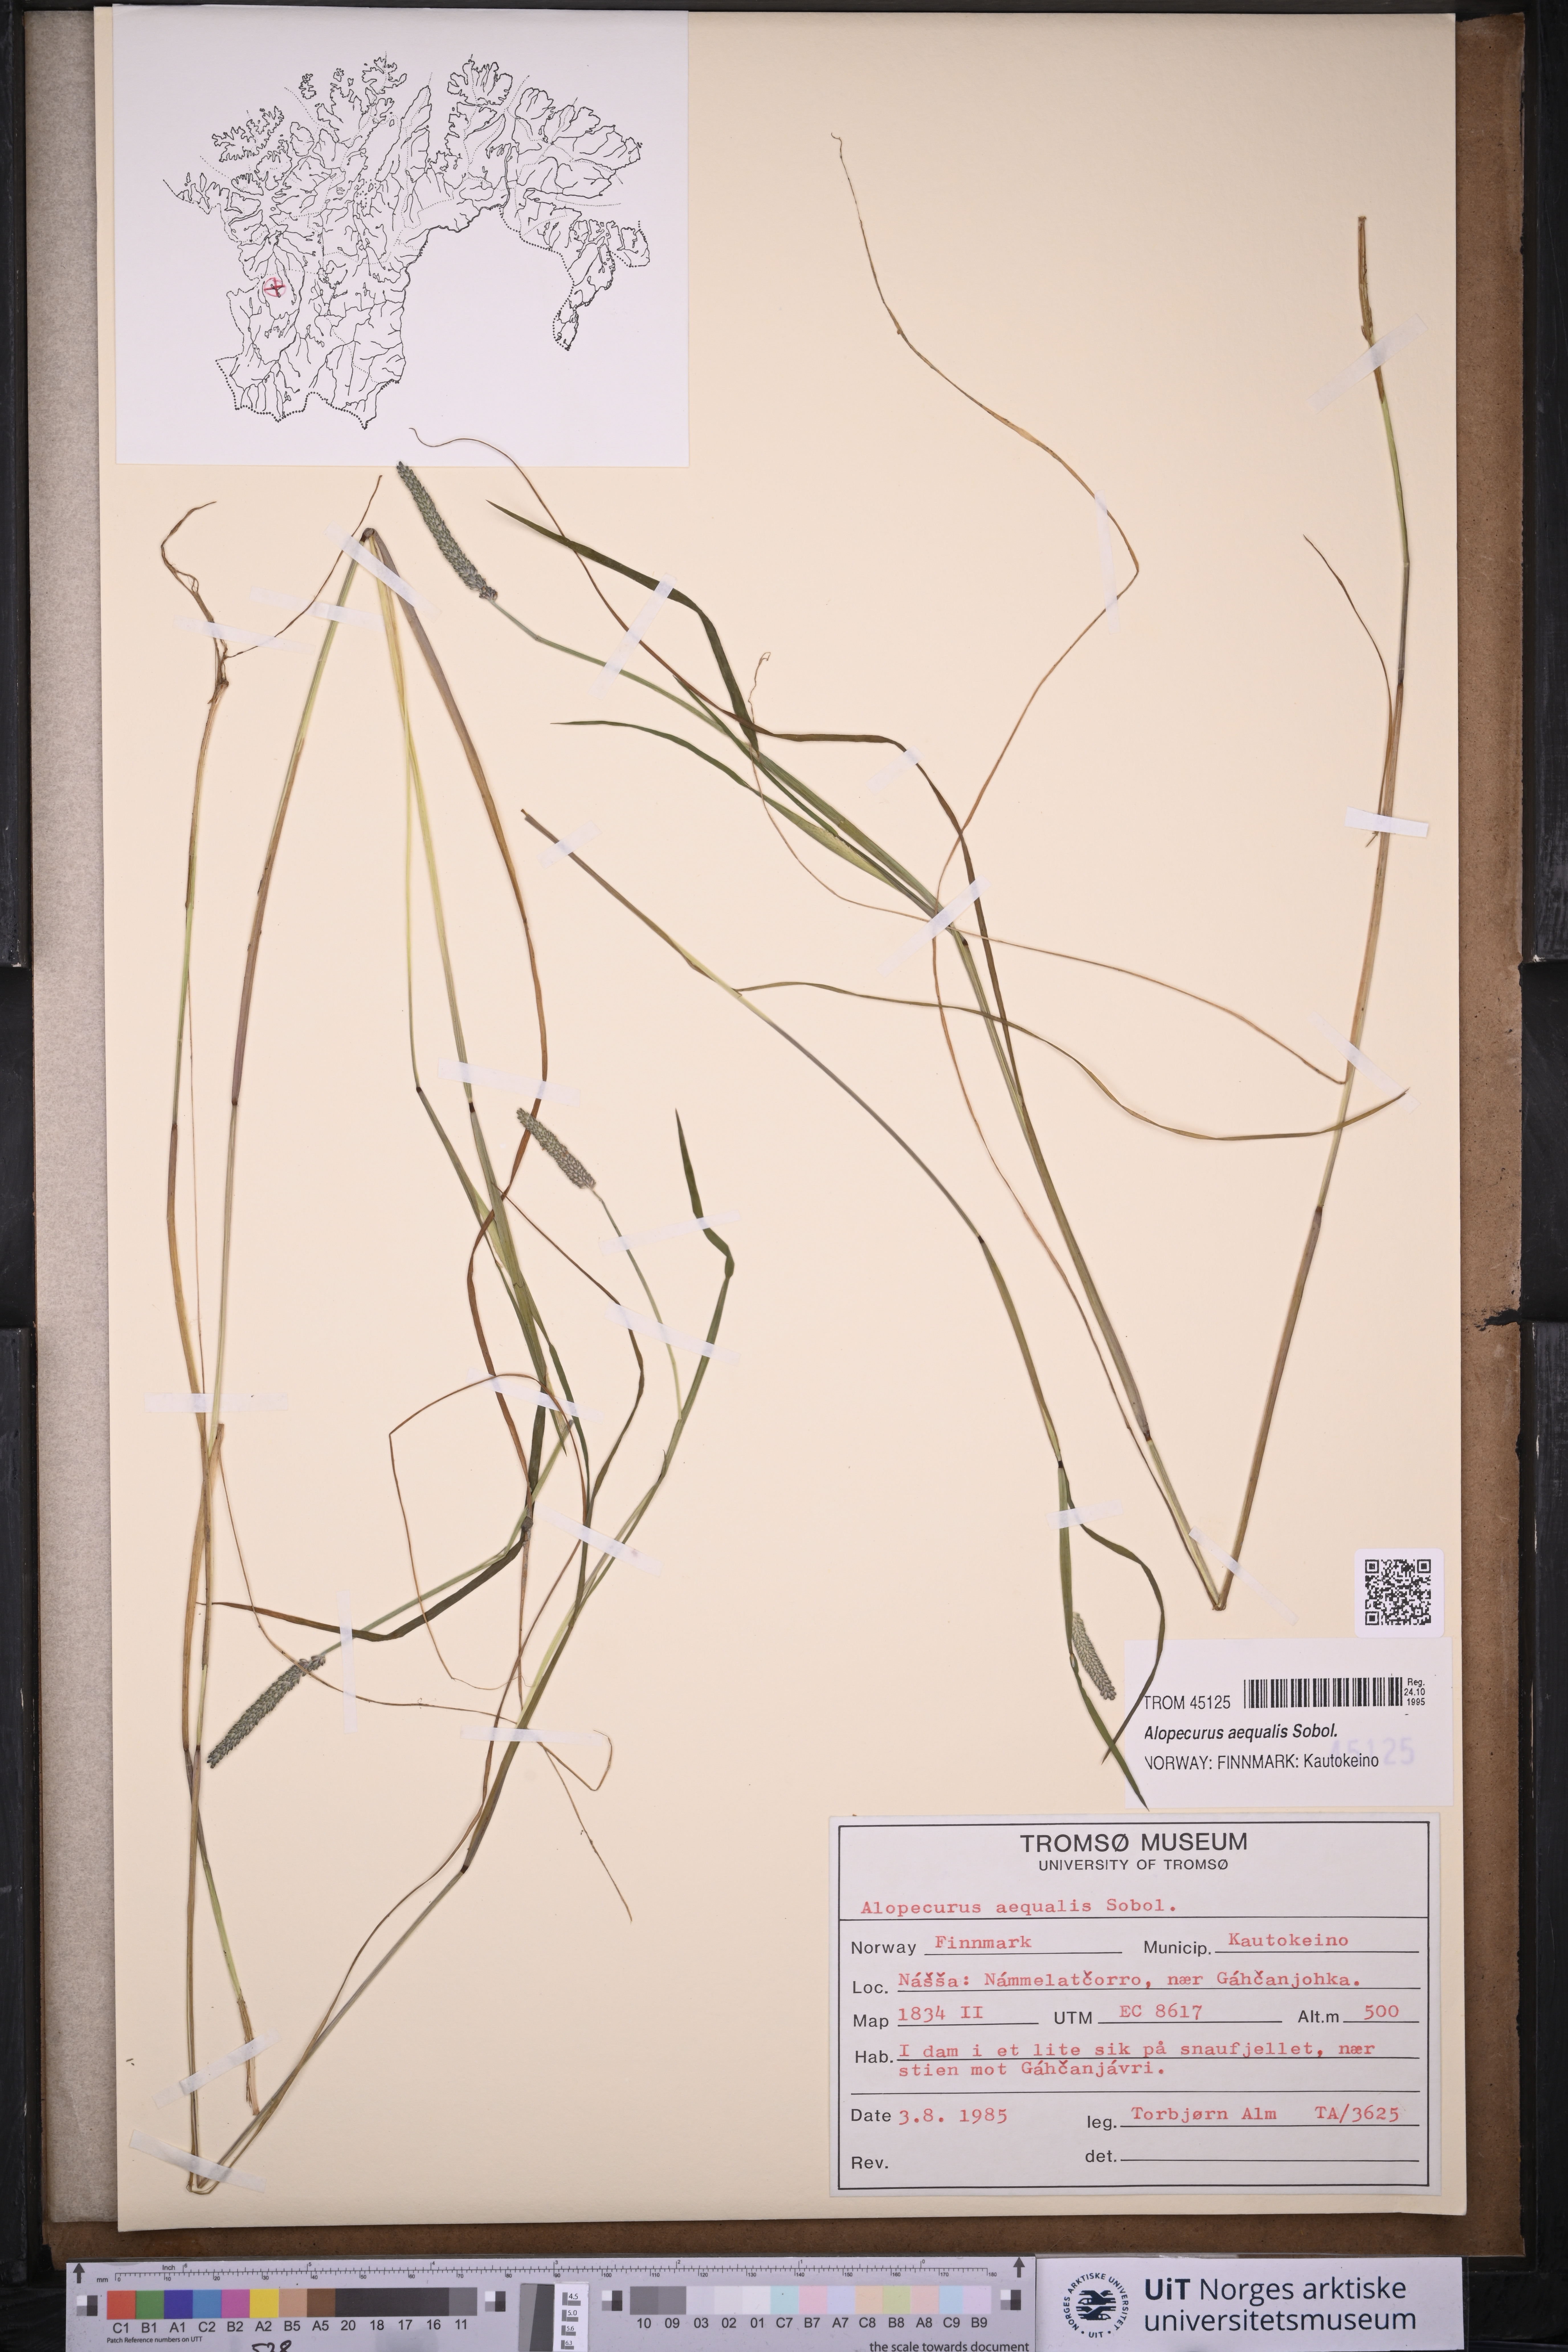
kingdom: Plantae
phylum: Tracheophyta
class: Liliopsida
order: Poales
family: Poaceae
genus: Alopecurus
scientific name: Alopecurus aequalis
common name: Orange foxtail
